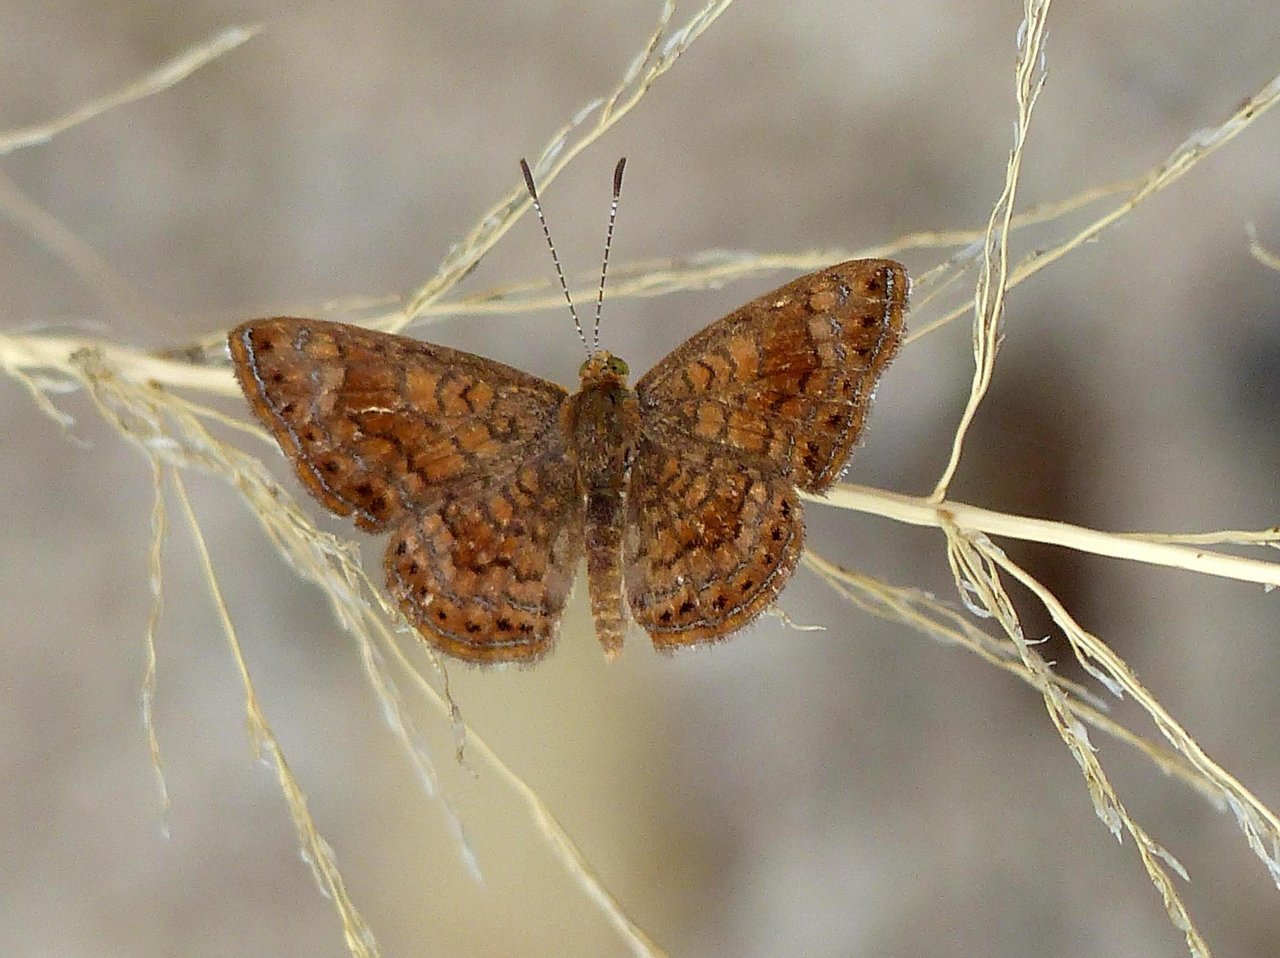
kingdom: Animalia
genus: Calephelis
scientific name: Calephelis nemesis
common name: Fatal Metalmark
